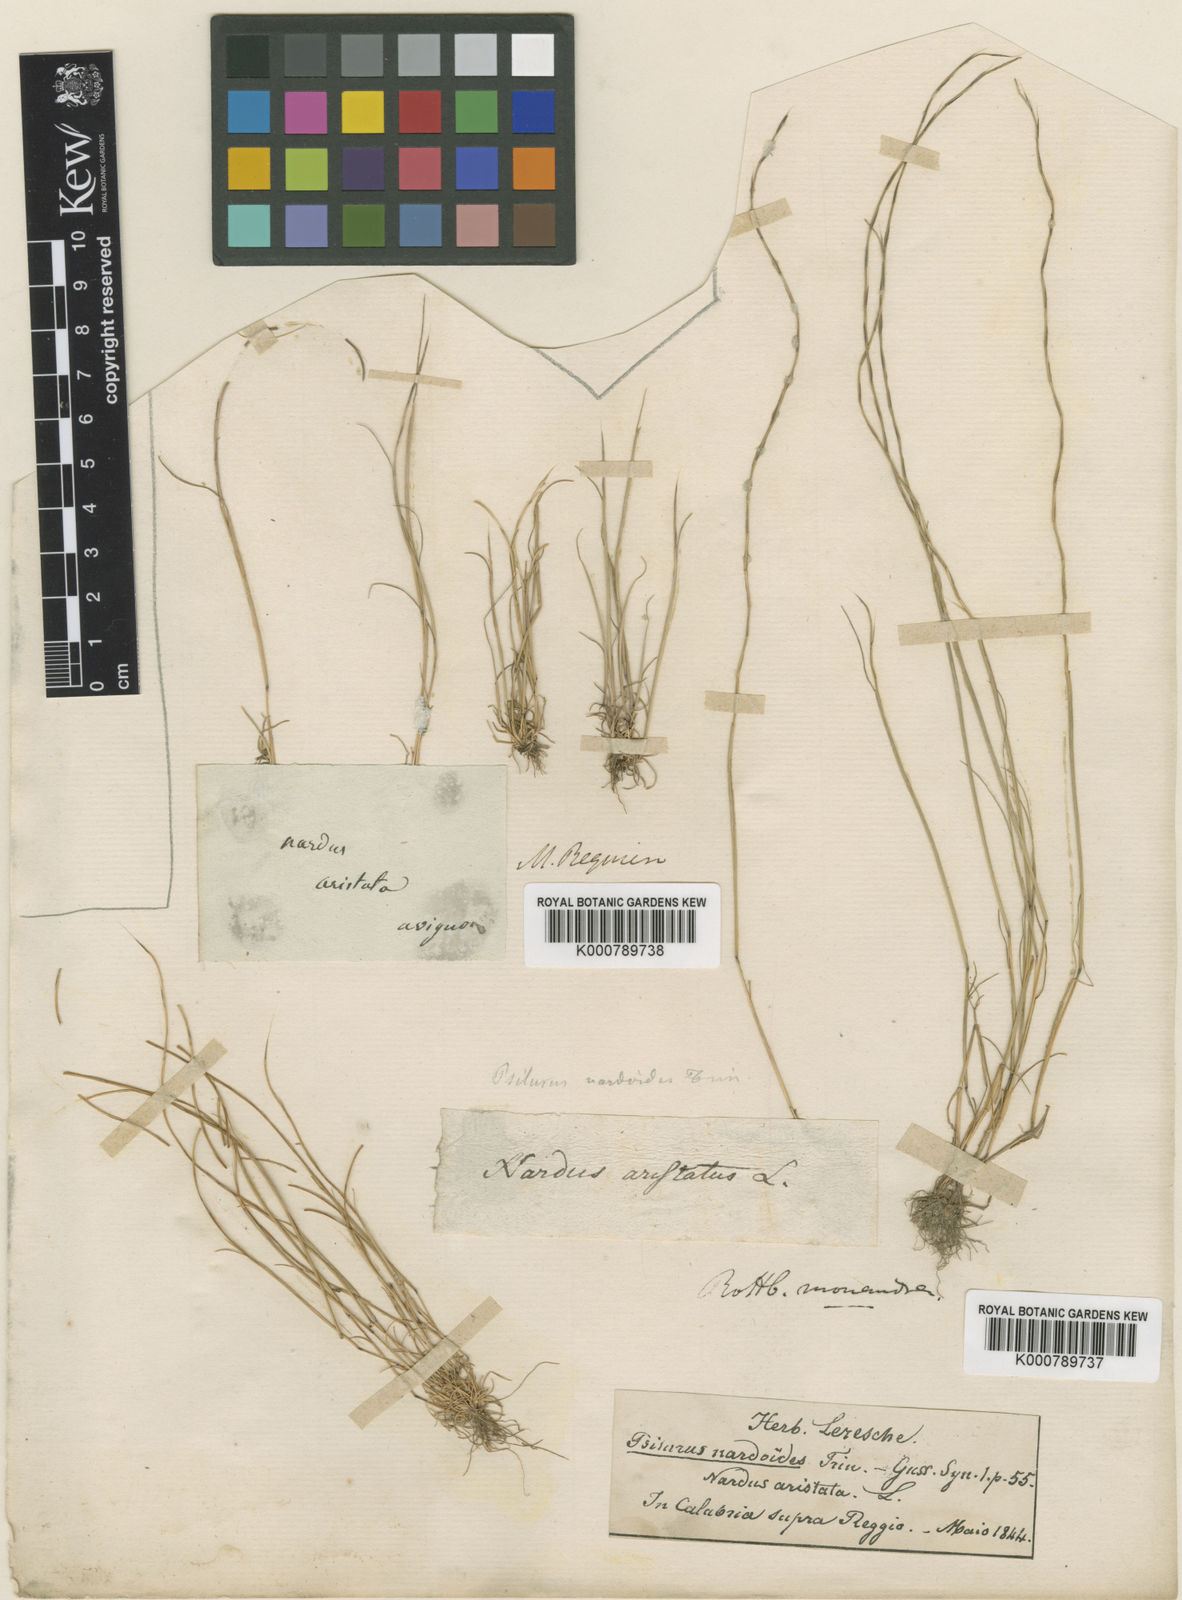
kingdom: Plantae
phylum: Tracheophyta
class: Liliopsida
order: Poales
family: Poaceae
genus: Festuca
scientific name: Festuca incurva
